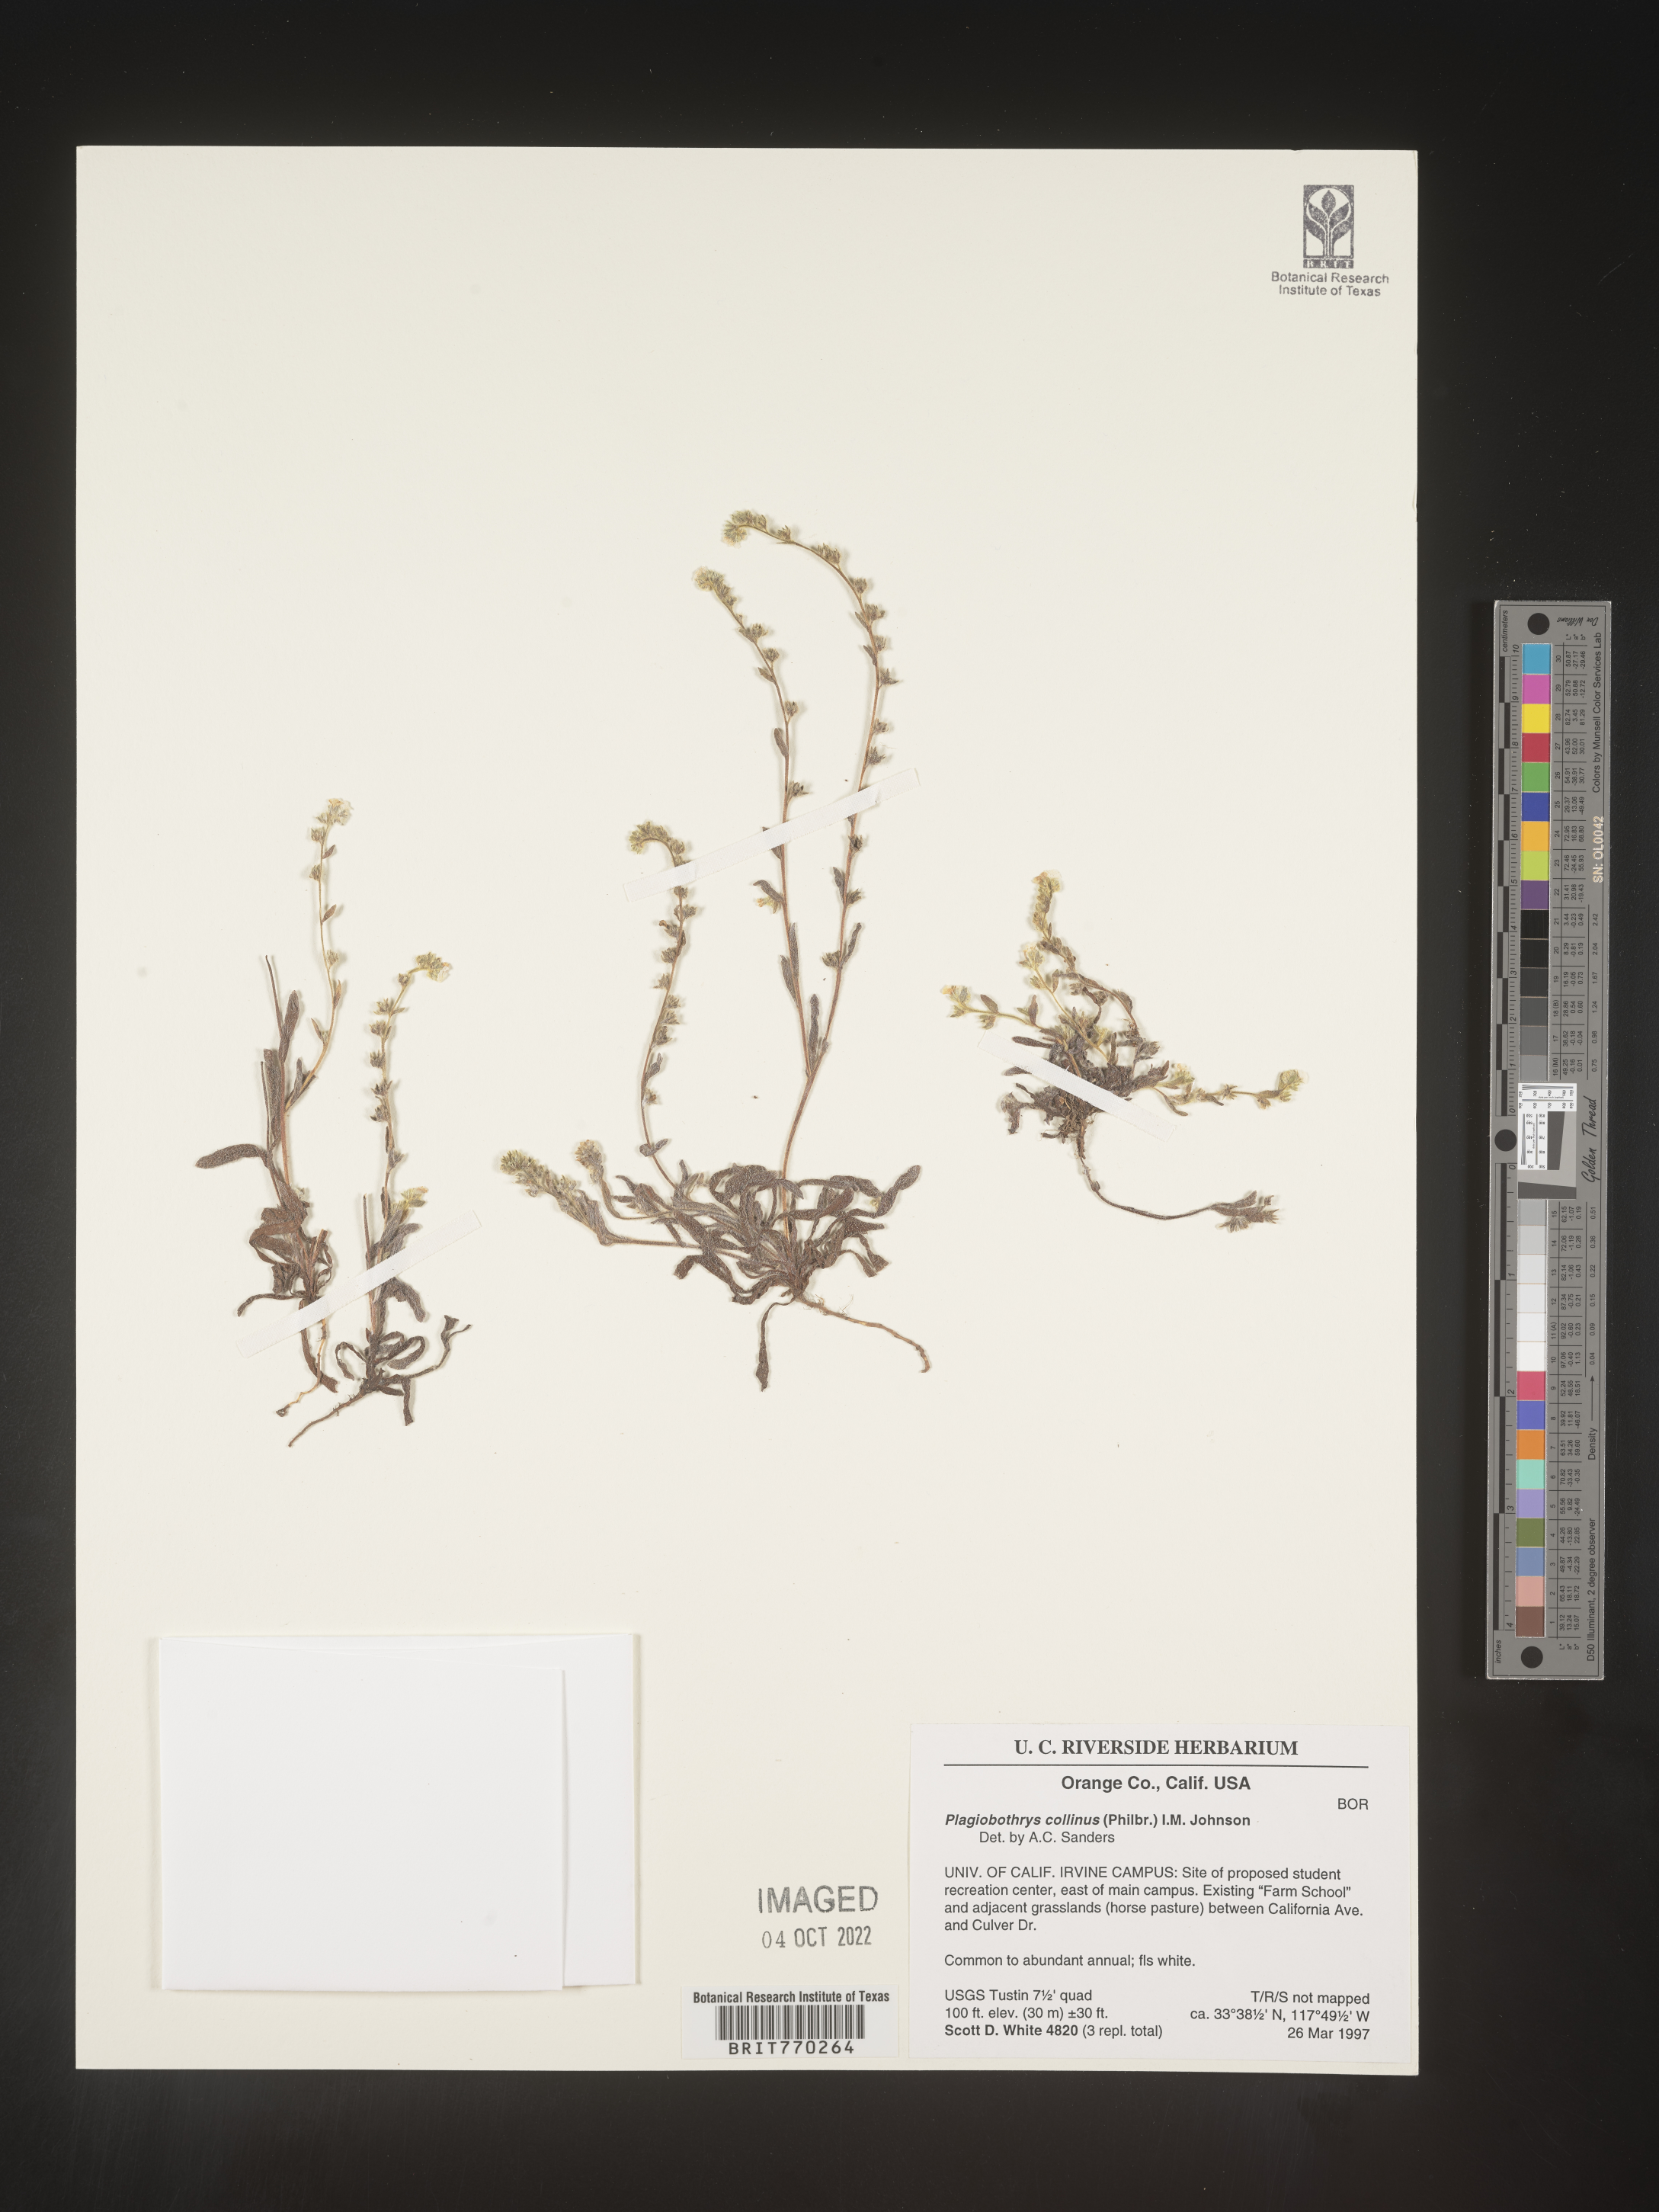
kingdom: Plantae
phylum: Tracheophyta
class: Magnoliopsida
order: Boraginales
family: Boraginaceae
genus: Plagiobothrys
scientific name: Plagiobothrys
